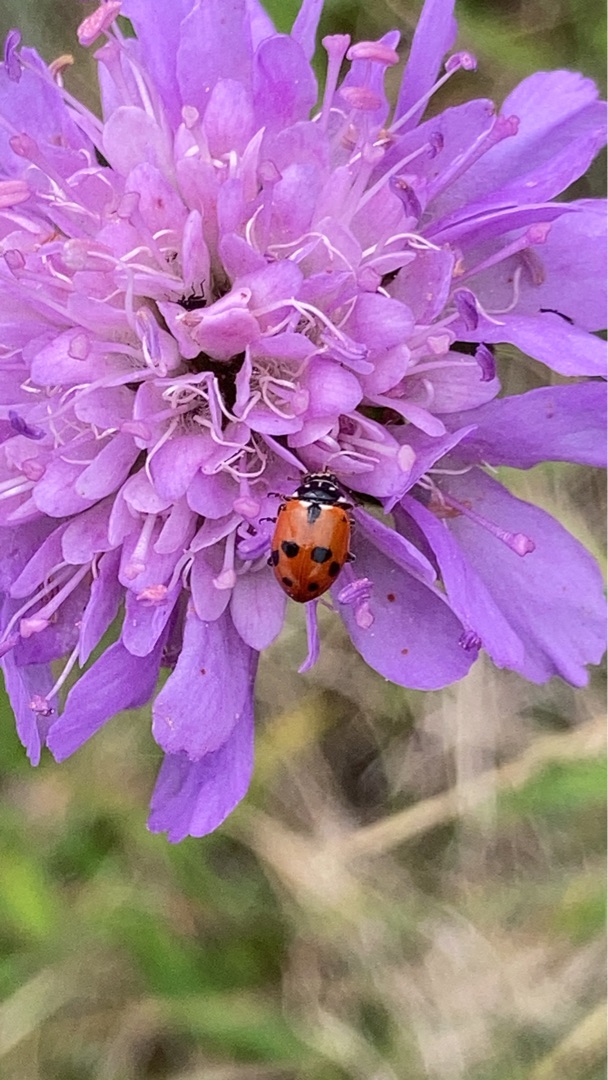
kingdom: Animalia
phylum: Arthropoda
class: Insecta
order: Coleoptera
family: Coccinellidae
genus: Hippodamia
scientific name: Hippodamia variegata
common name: Adonis' mariehøne
